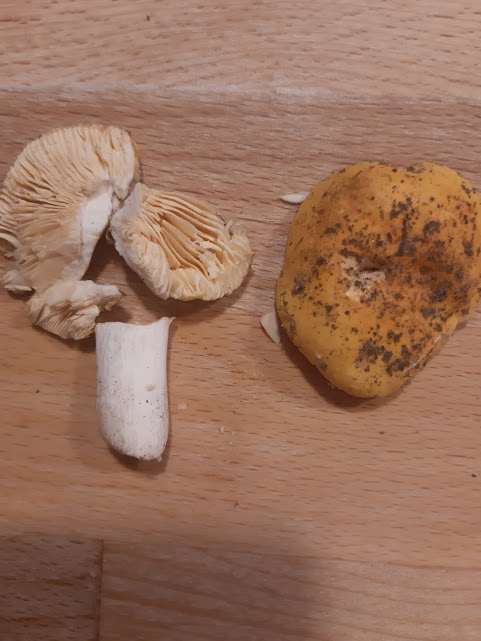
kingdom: Fungi
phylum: Basidiomycota
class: Agaricomycetes
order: Russulales
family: Russulaceae
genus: Russula
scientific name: Russula risigallina
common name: abrikos-skørhat
